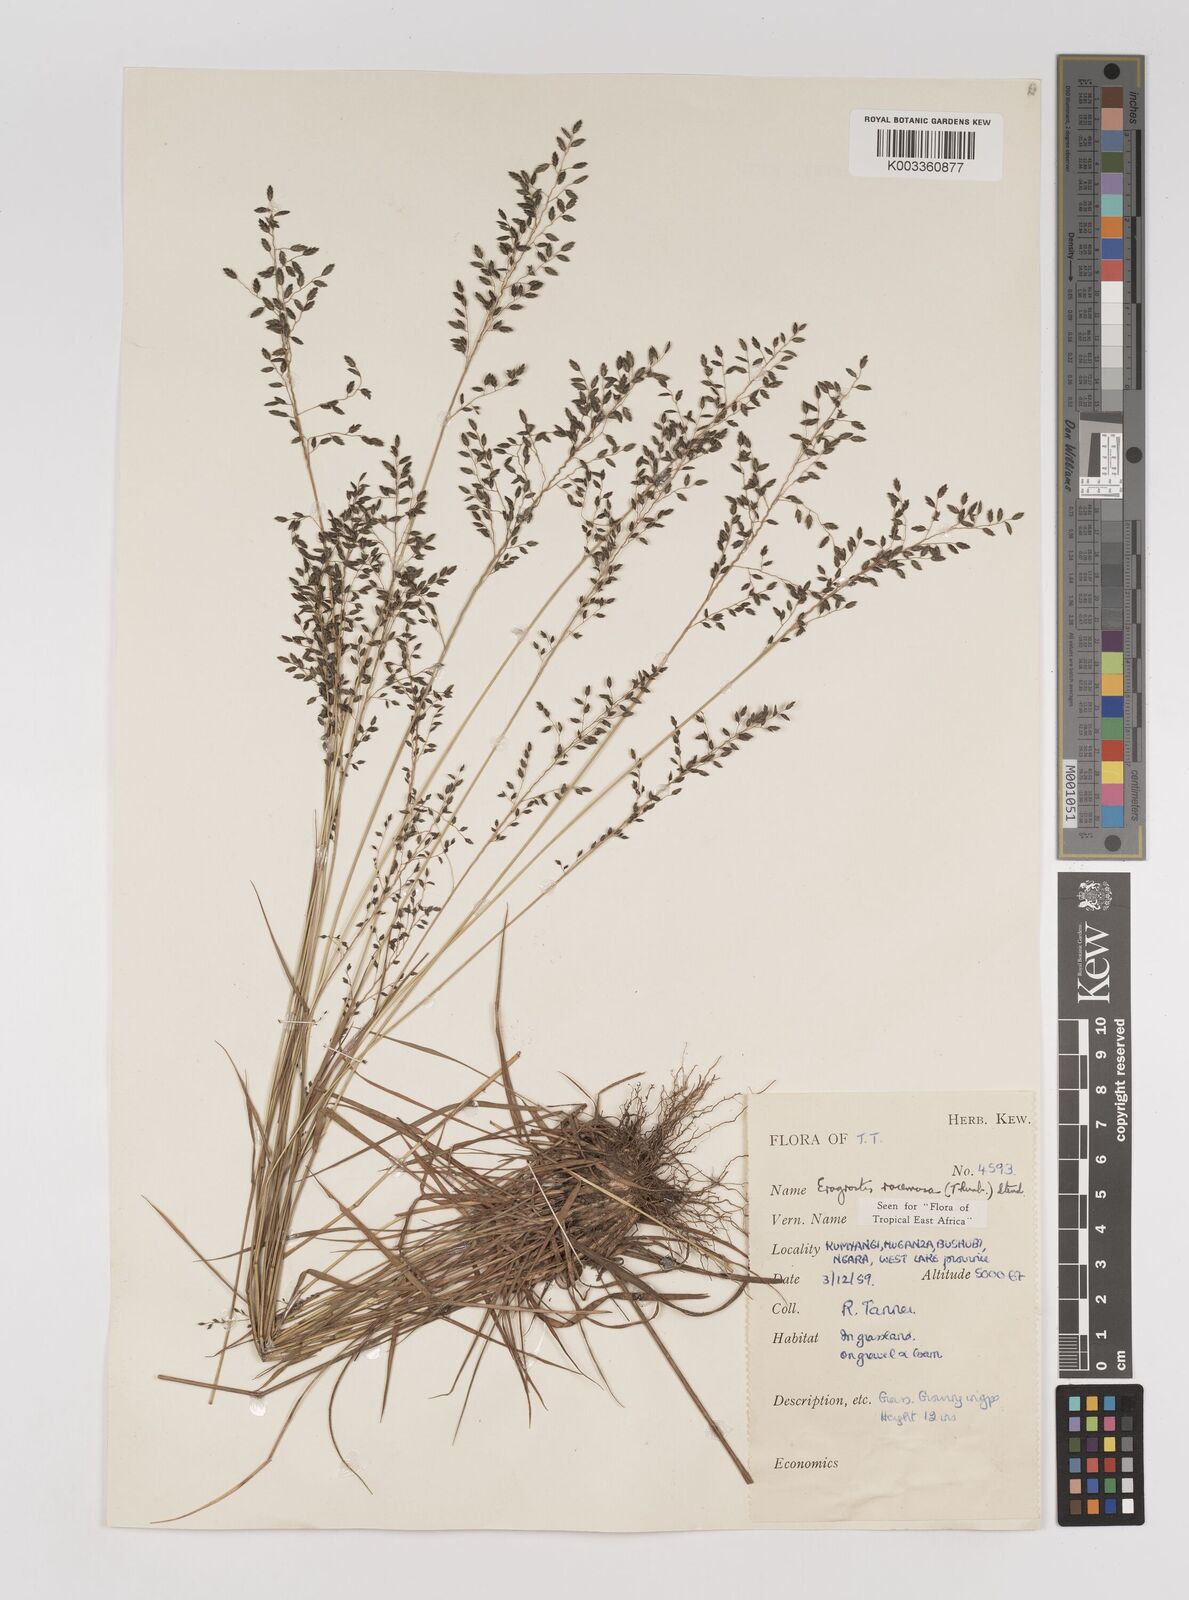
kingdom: Plantae
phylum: Tracheophyta
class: Liliopsida
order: Poales
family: Poaceae
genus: Eragrostis
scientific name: Eragrostis racemosa
